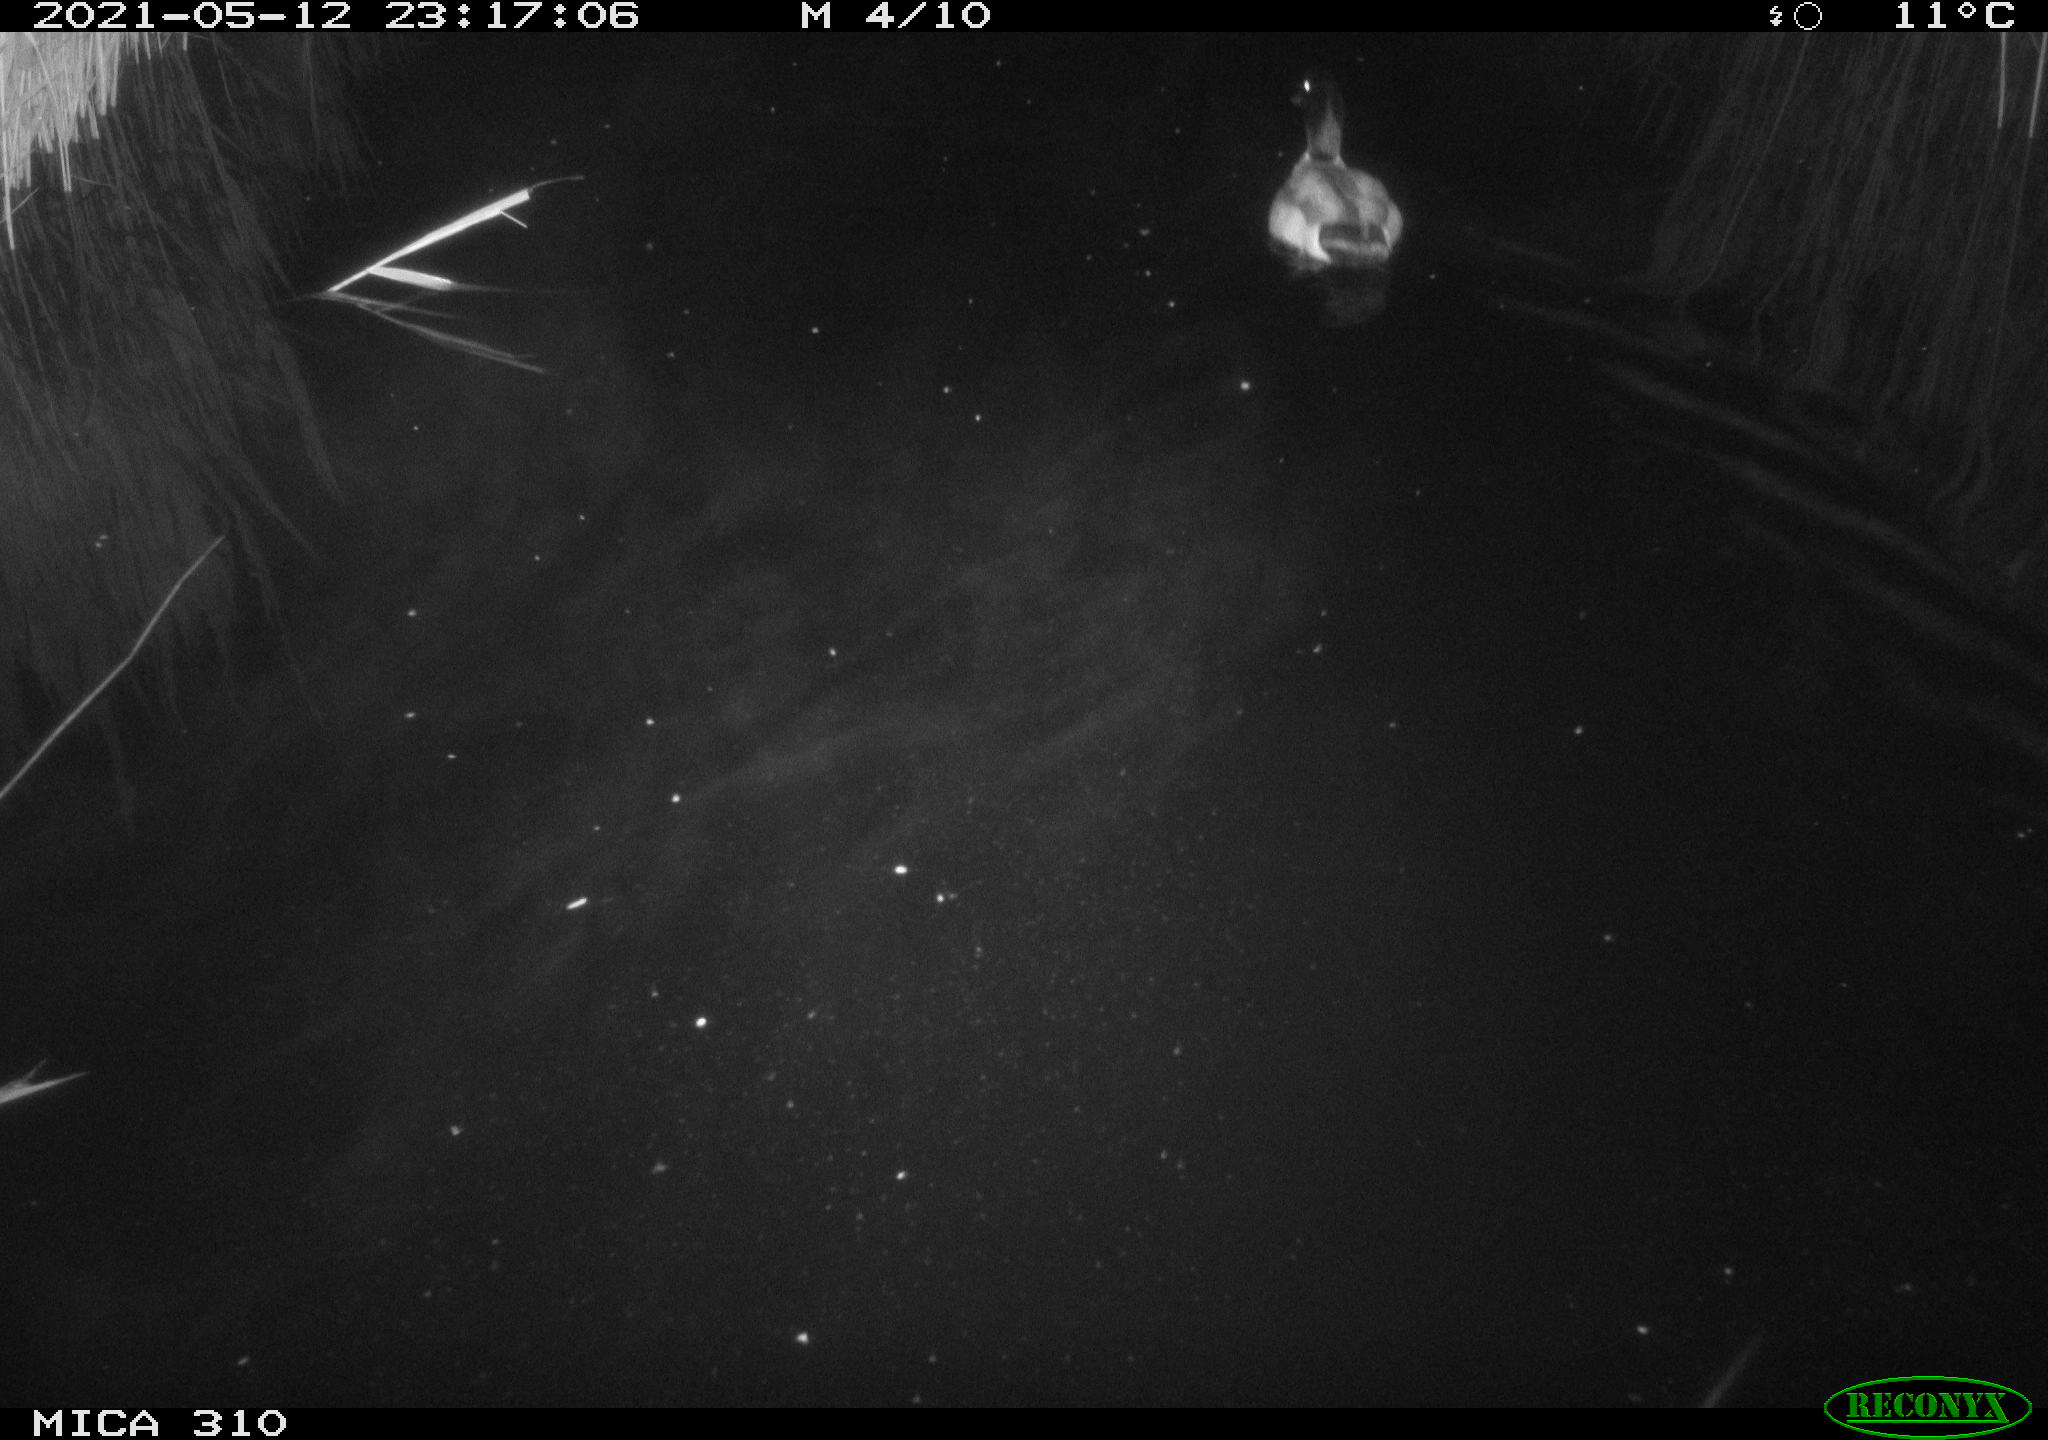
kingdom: Animalia
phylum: Chordata
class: Aves
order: Anseriformes
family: Anatidae
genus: Anas
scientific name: Anas platyrhynchos
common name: Mallard
